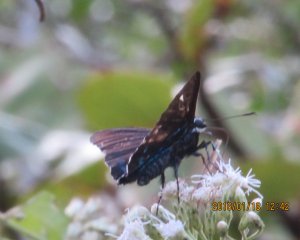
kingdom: Animalia
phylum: Arthropoda
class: Insecta
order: Lepidoptera
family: Hesperiidae
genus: Phocides
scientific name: Phocides pigmalion
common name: Mangrove Skipper
